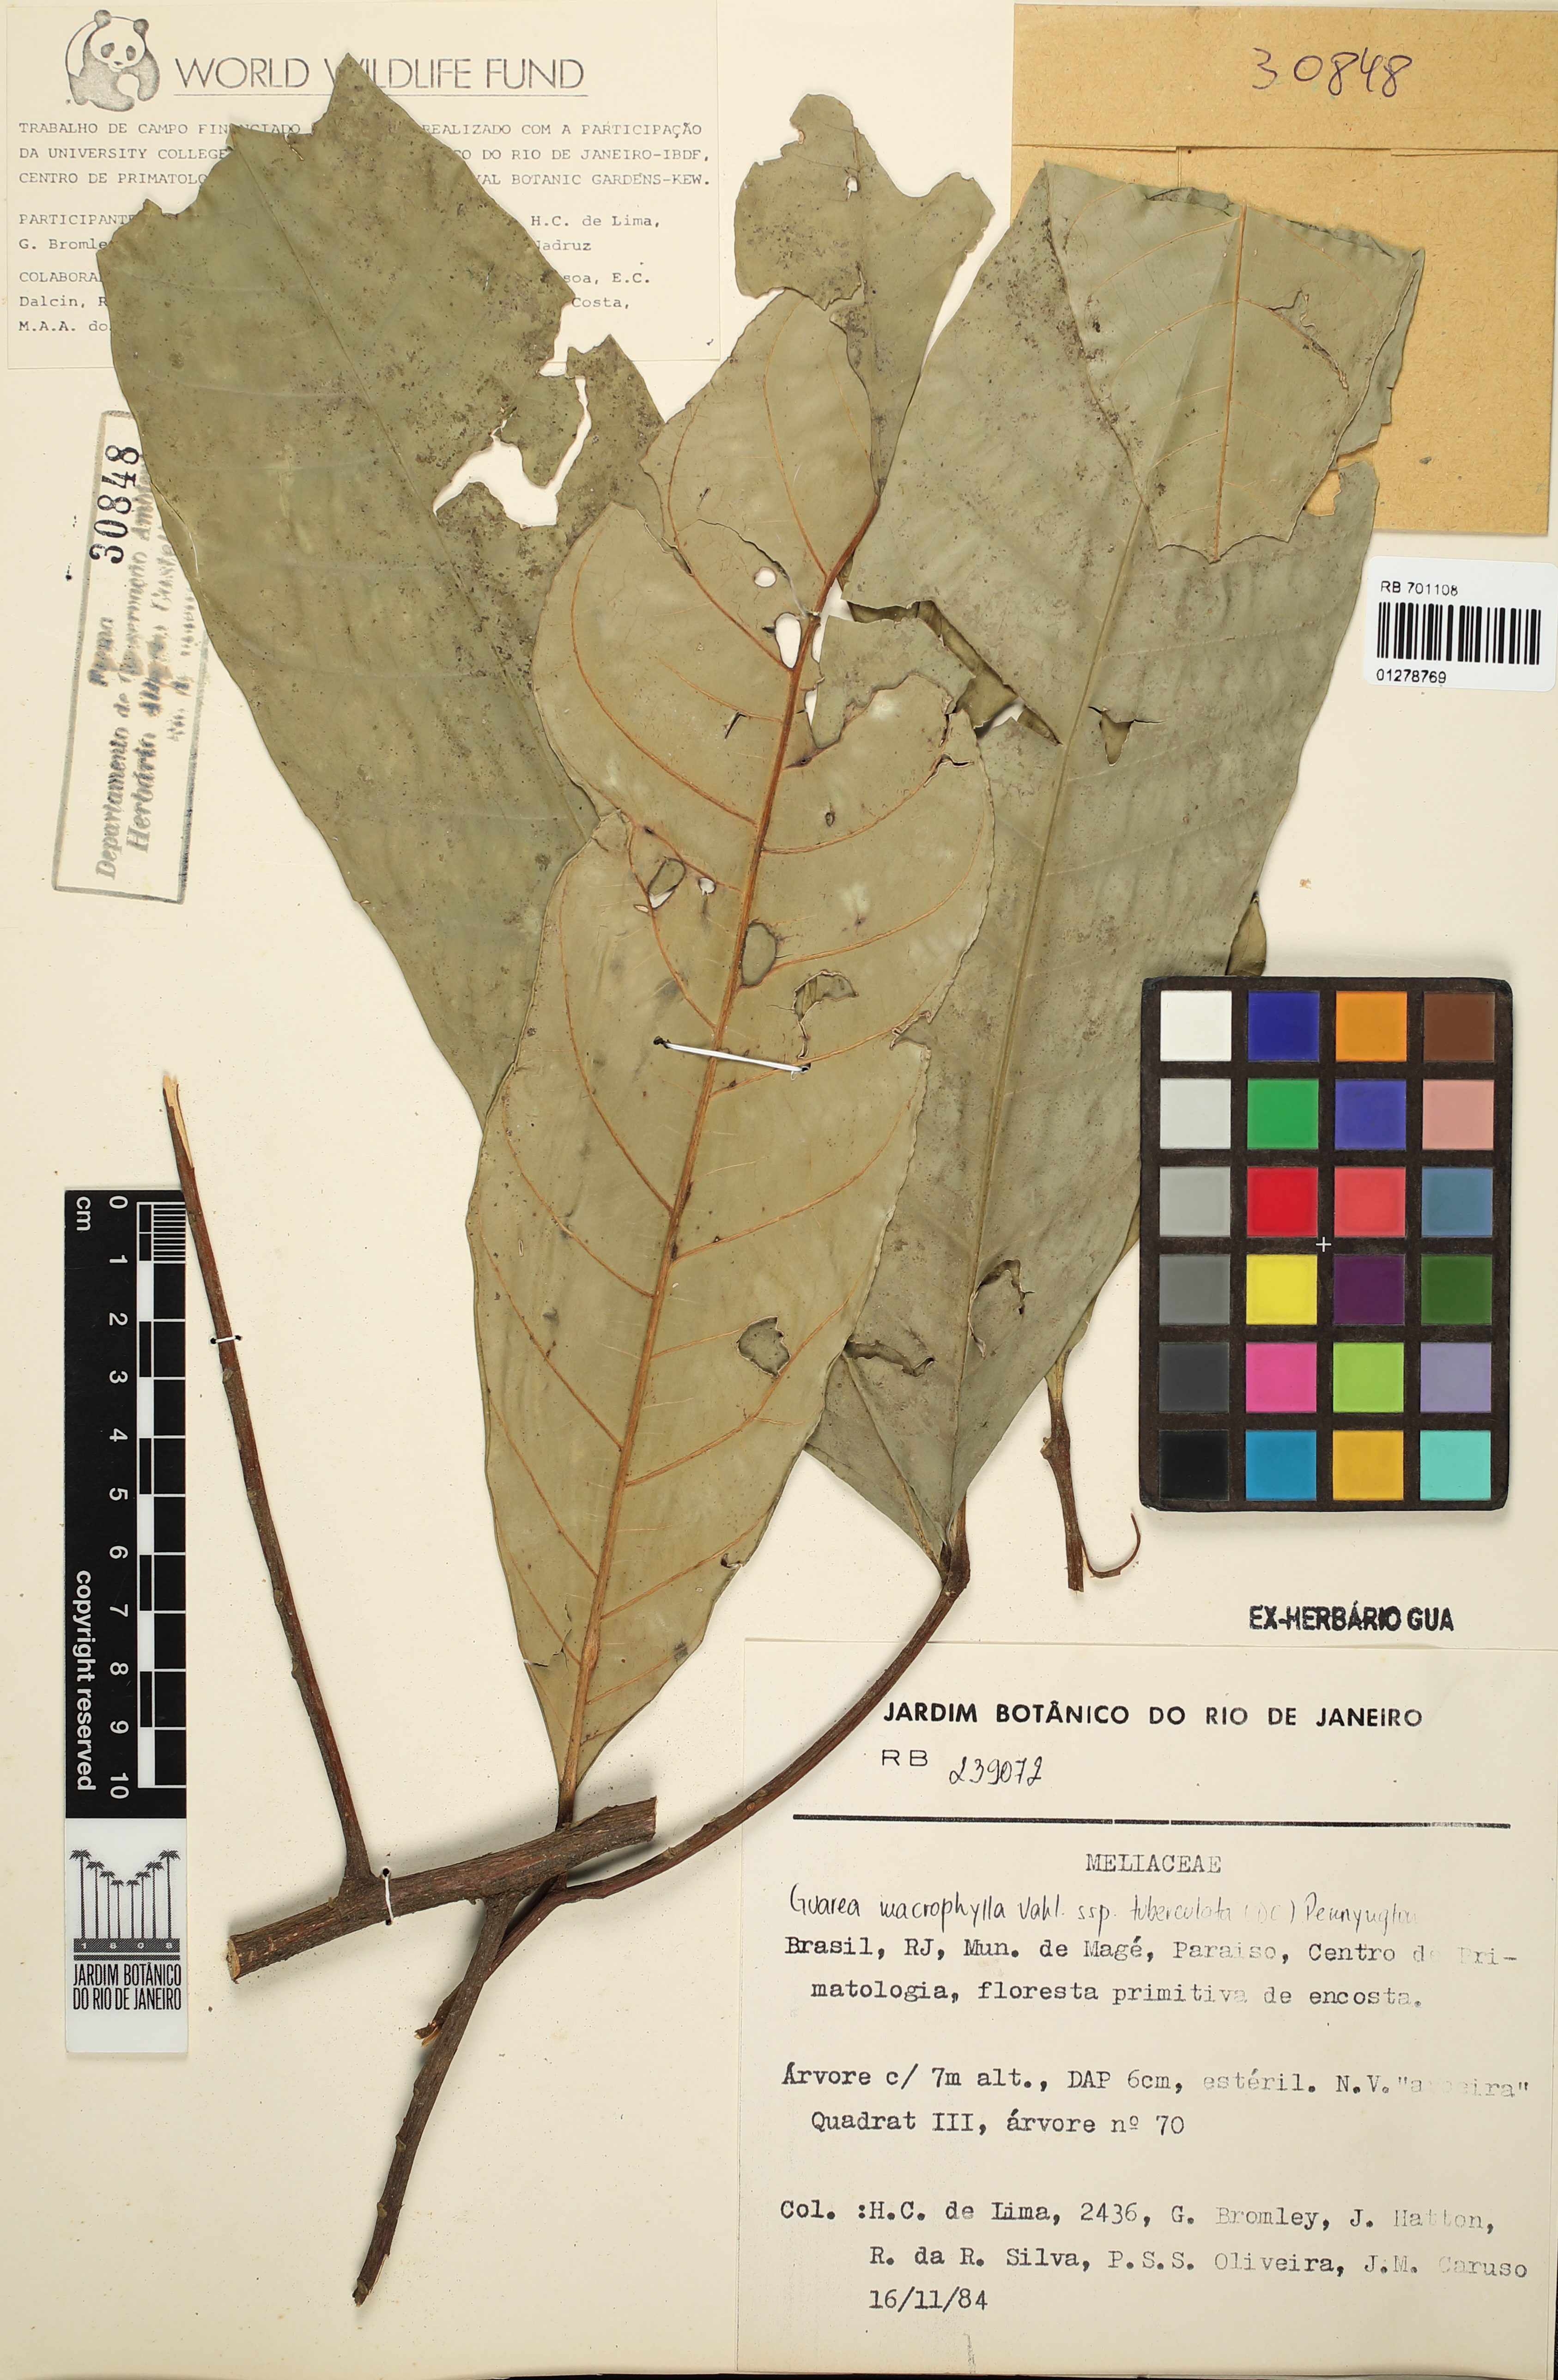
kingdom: Plantae
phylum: Tracheophyta
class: Magnoliopsida
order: Sapindales
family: Meliaceae
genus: Guarea
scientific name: Guarea macrophylla
